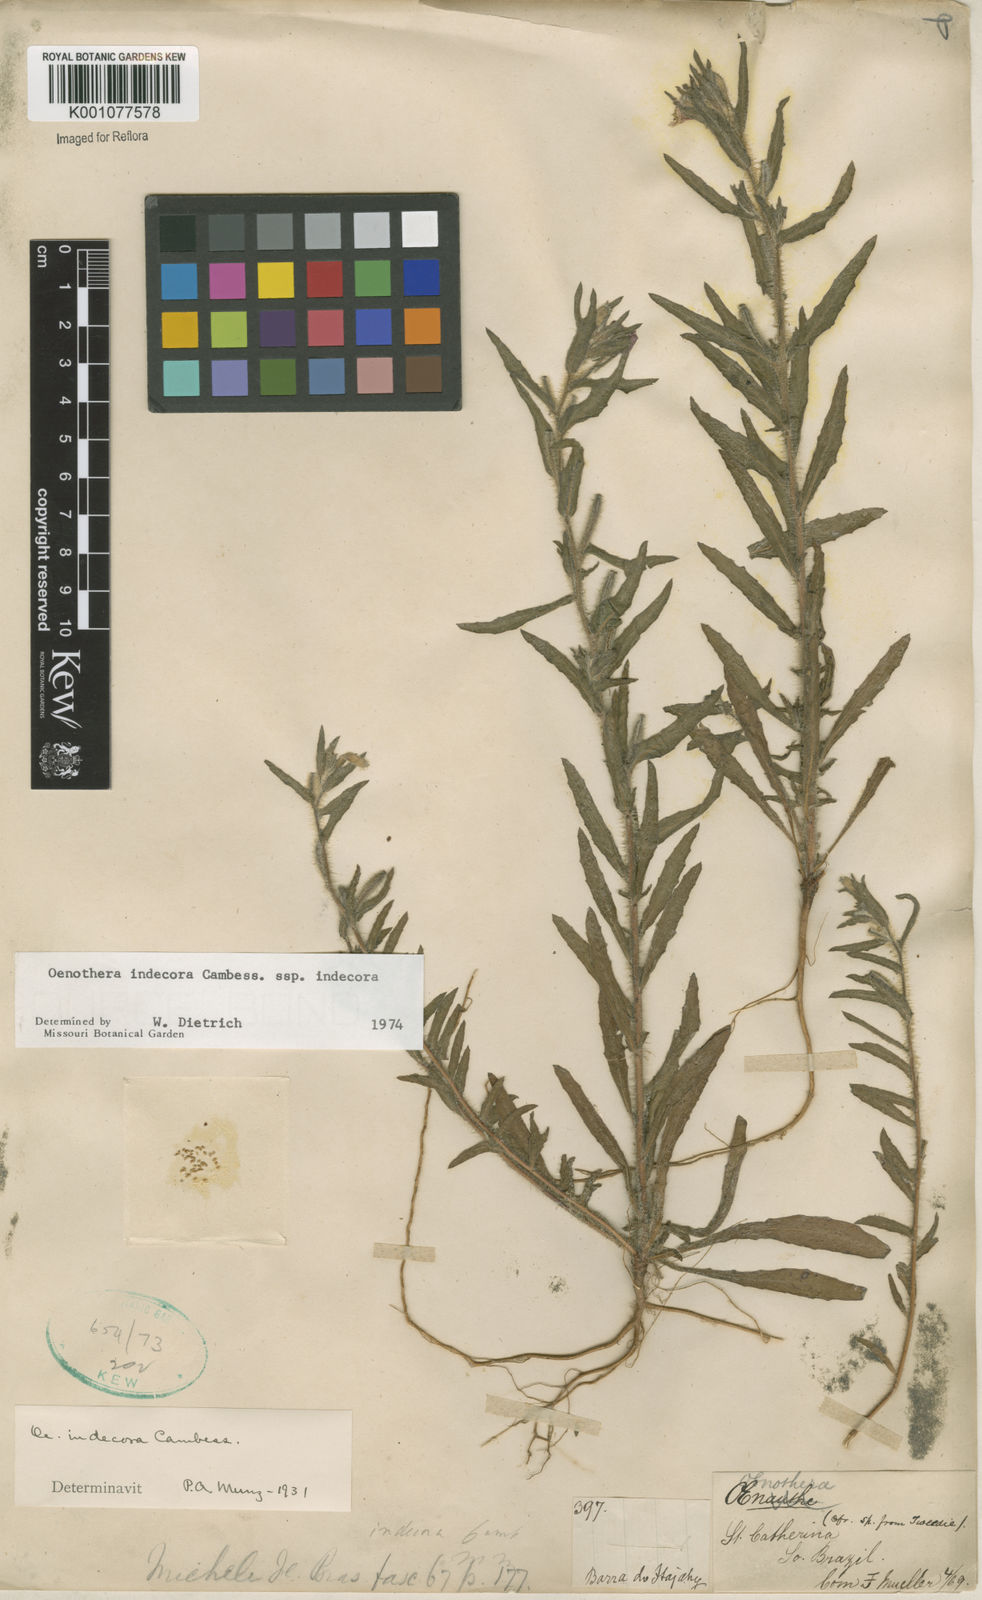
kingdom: Plantae
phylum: Tracheophyta
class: Magnoliopsida
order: Myrtales
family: Onagraceae
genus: Oenothera
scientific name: Oenothera indecora
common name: Small-flower evening-primrose
